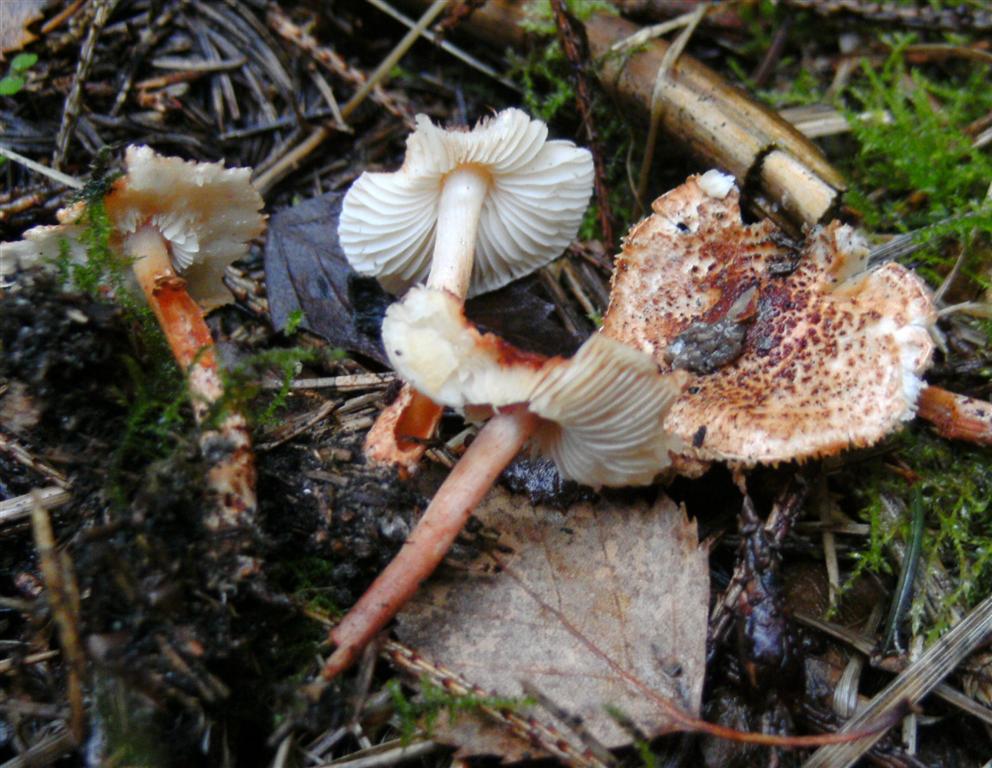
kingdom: Fungi
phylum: Basidiomycota
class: Agaricomycetes
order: Agaricales
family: Agaricaceae
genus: Lepiota
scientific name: Lepiota castanea
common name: kastaniebrun parasolhat
